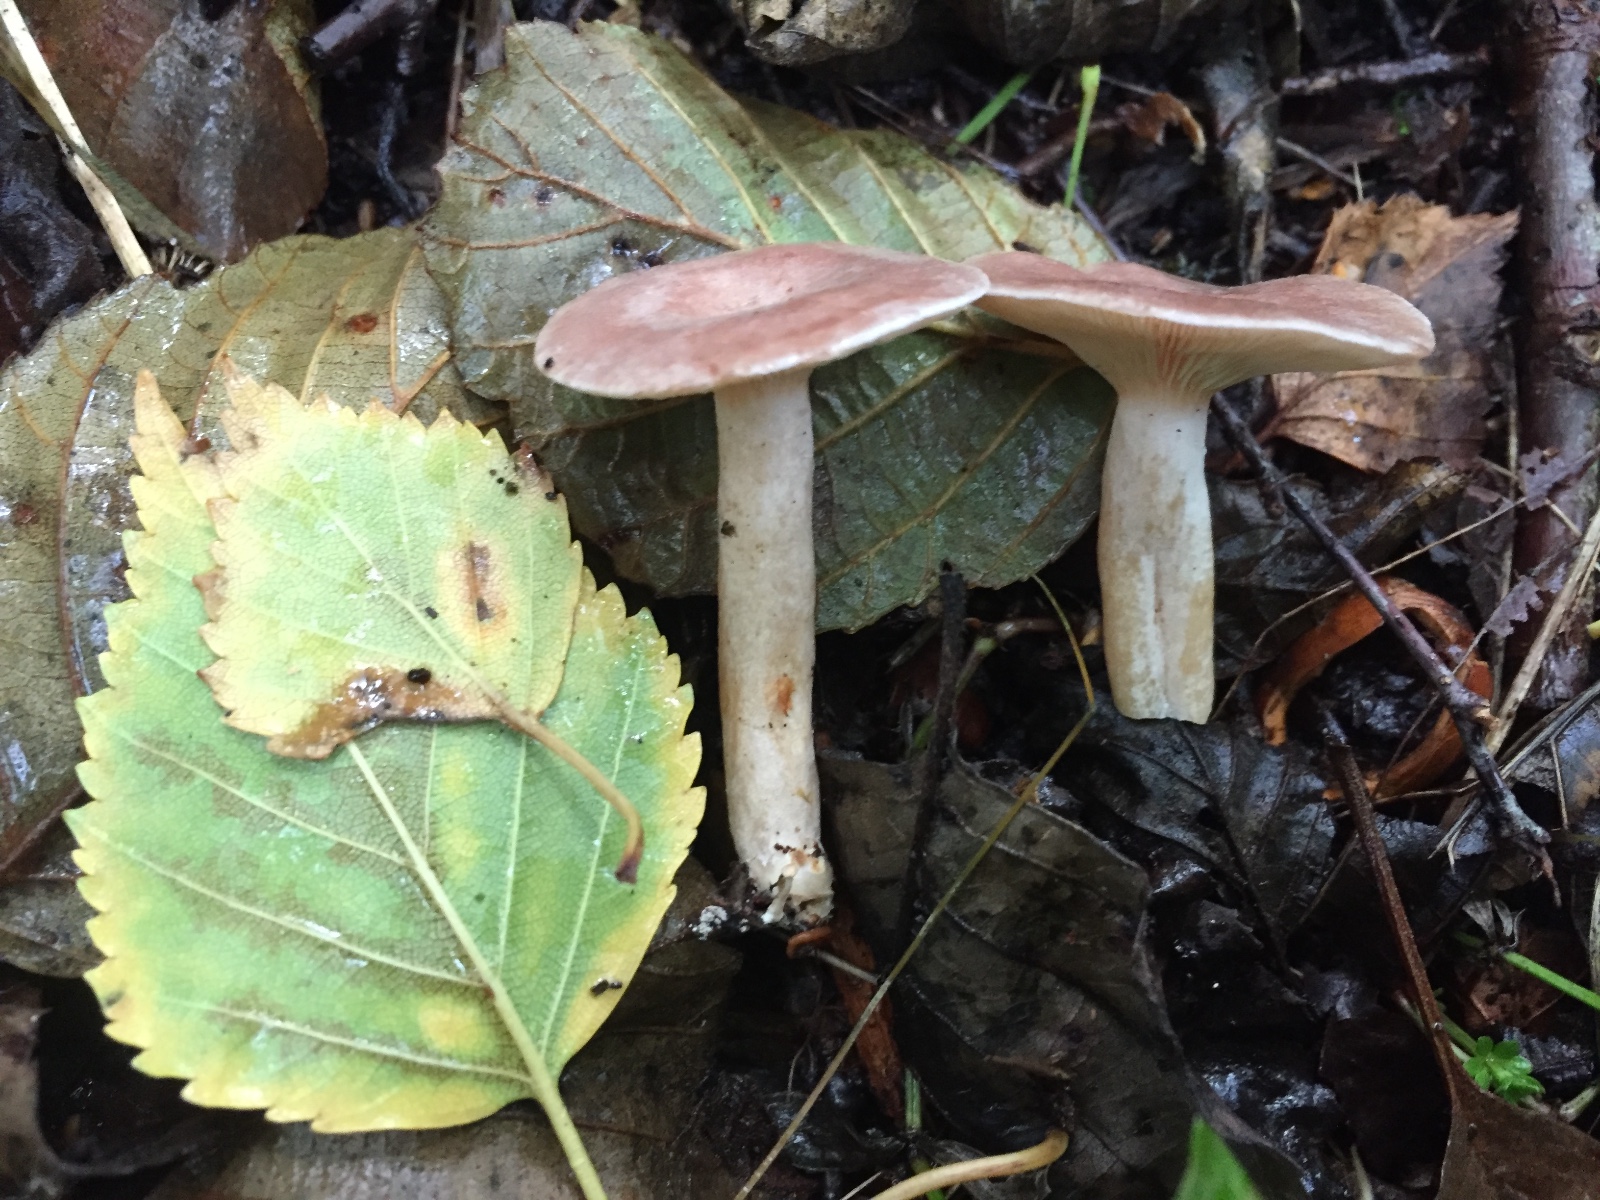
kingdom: Fungi
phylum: Basidiomycota
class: Agaricomycetes
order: Russulales
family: Russulaceae
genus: Lactarius
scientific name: Lactarius glyciosmus
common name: kokos-mælkehat
